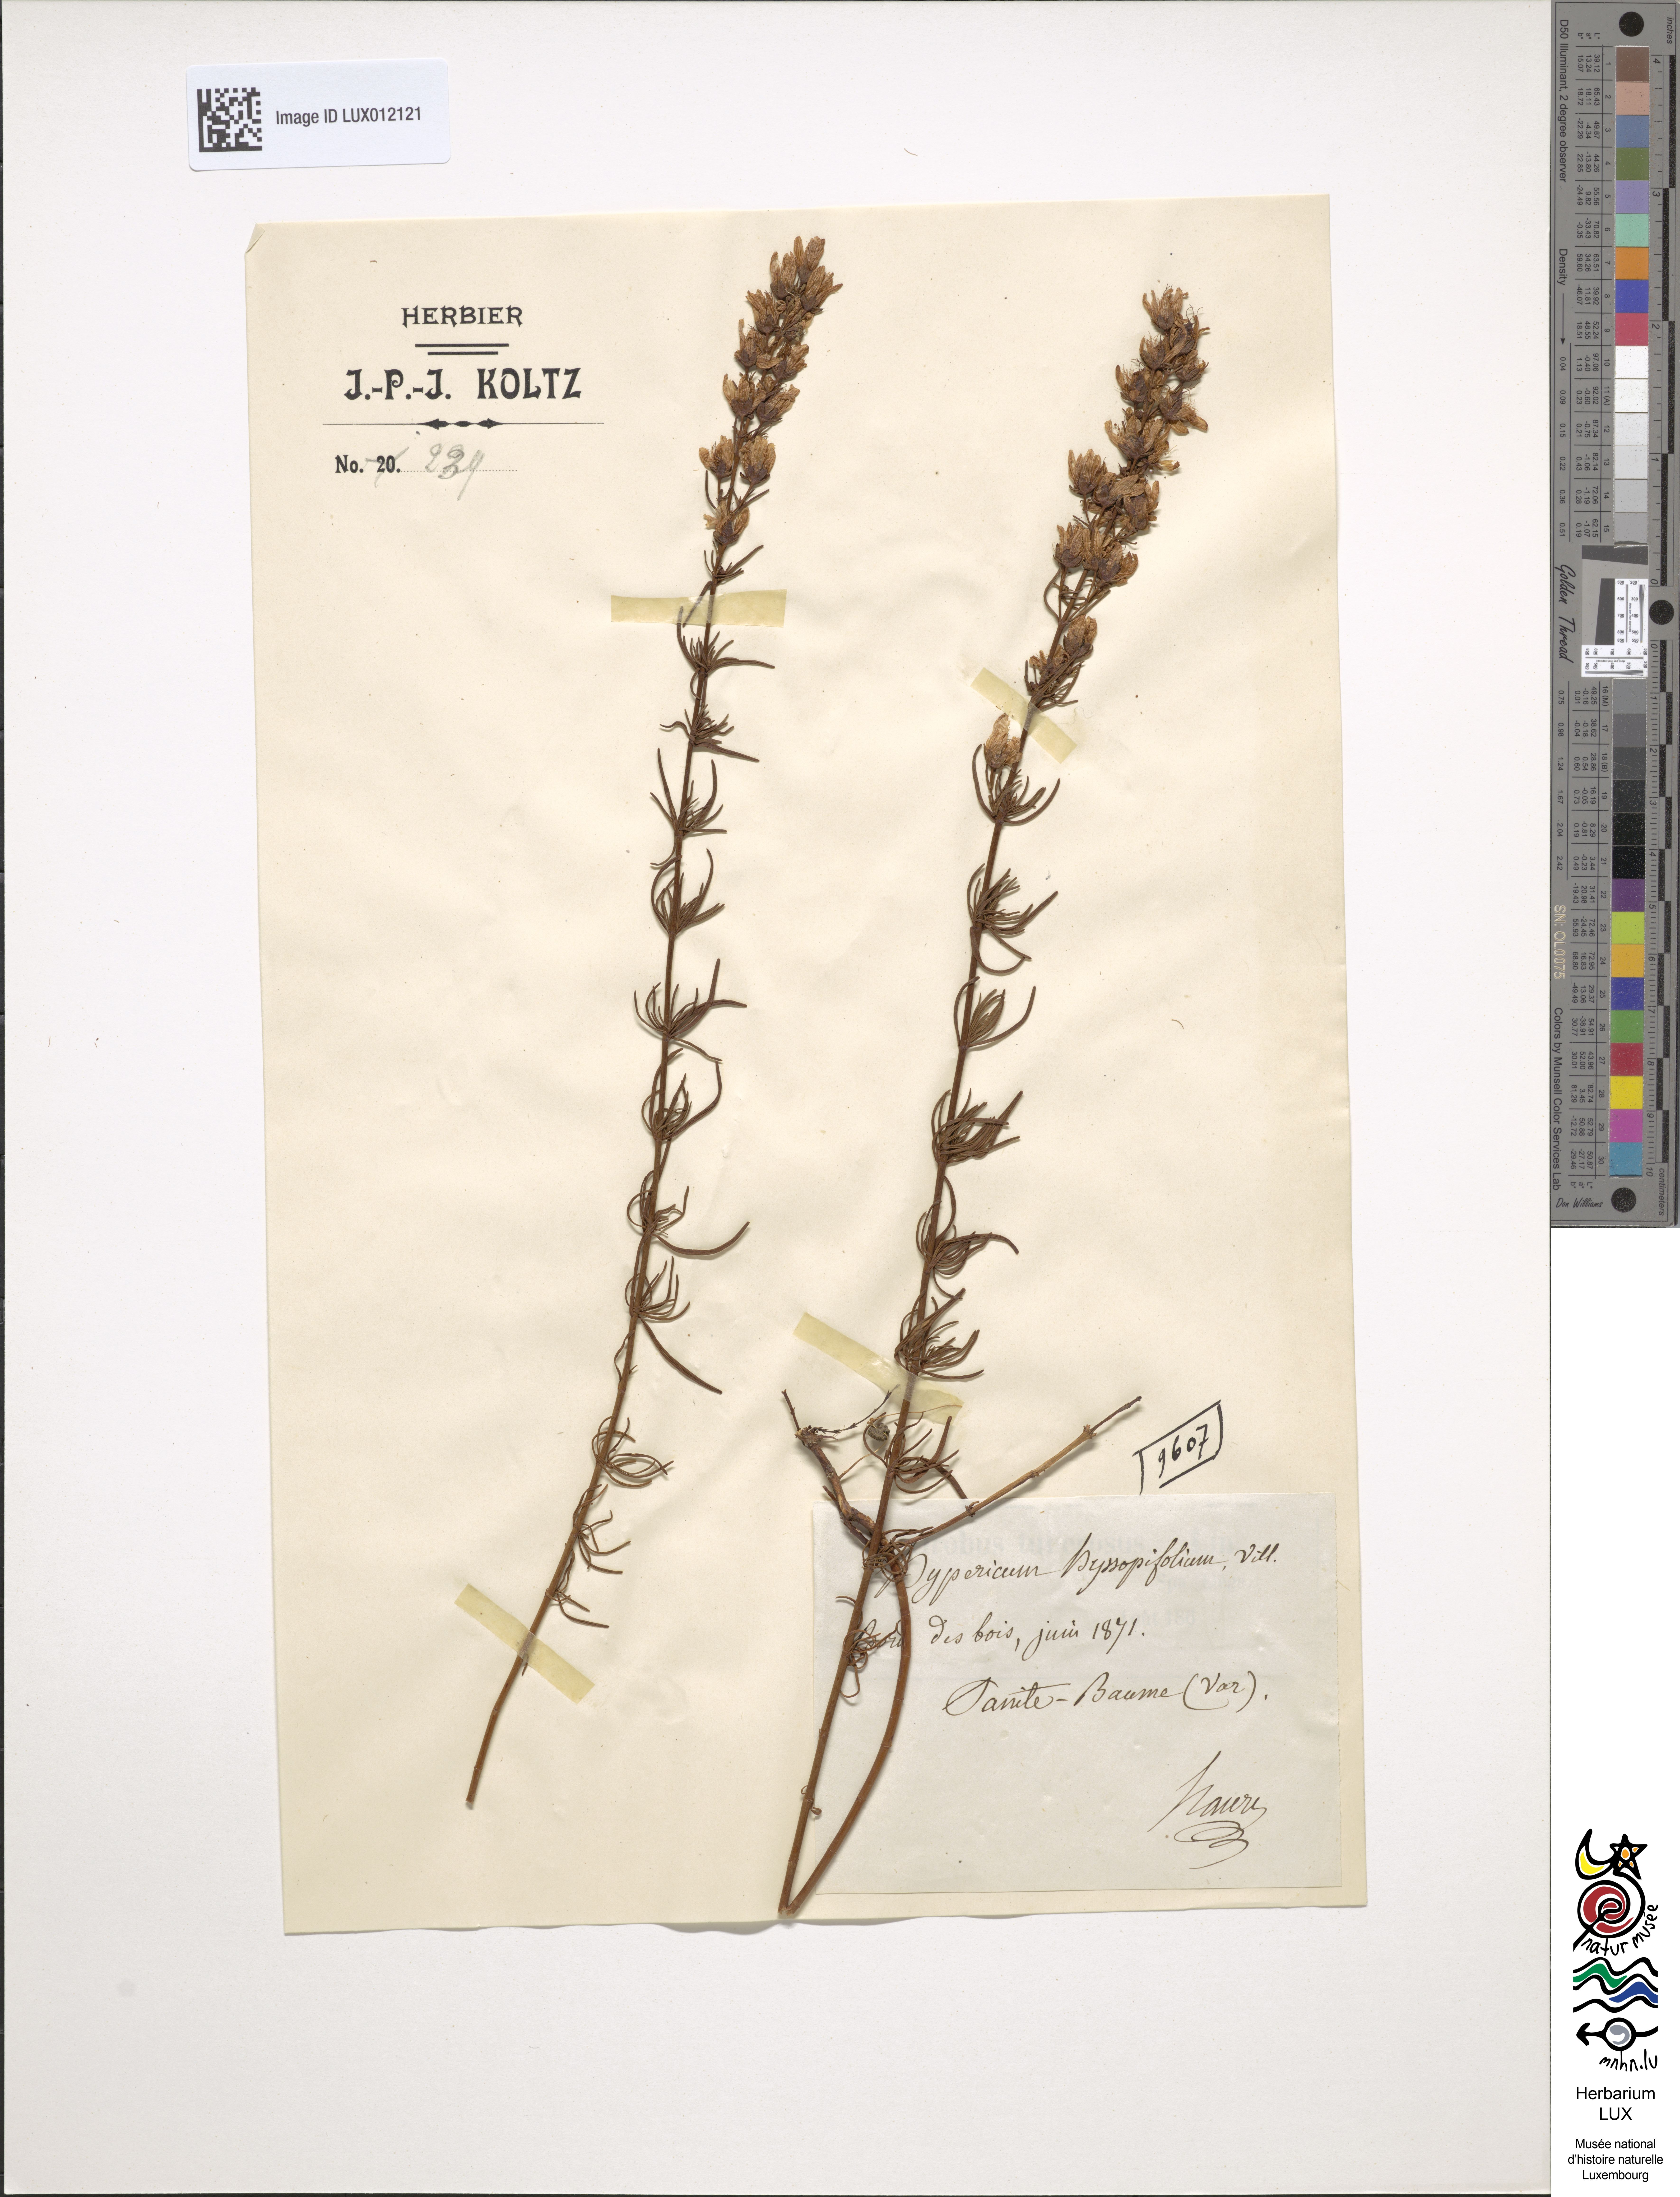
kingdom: Plantae
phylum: Tracheophyta
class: Magnoliopsida
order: Malpighiales
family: Hypericaceae
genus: Hypericum
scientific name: Hypericum hyssopifolium
